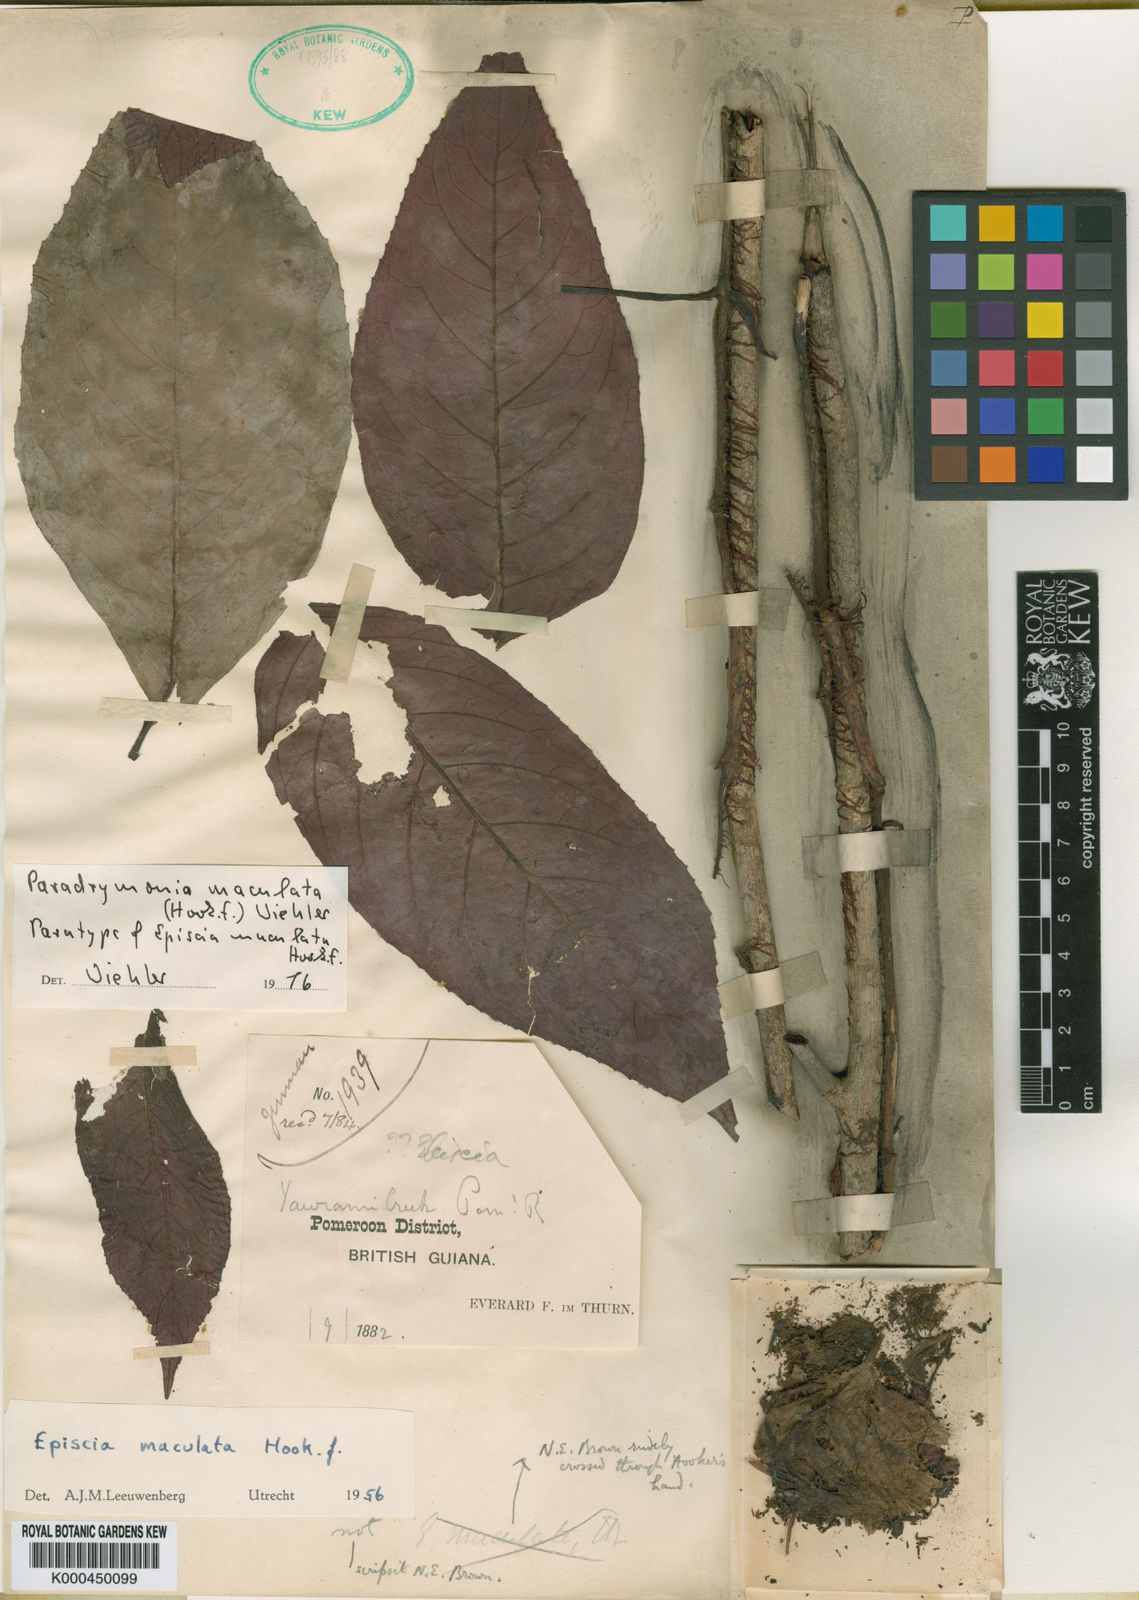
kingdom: Plantae
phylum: Tracheophyta
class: Magnoliopsida
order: Lamiales
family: Gesneriaceae
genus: Pagothyra
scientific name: Pagothyra maculata
